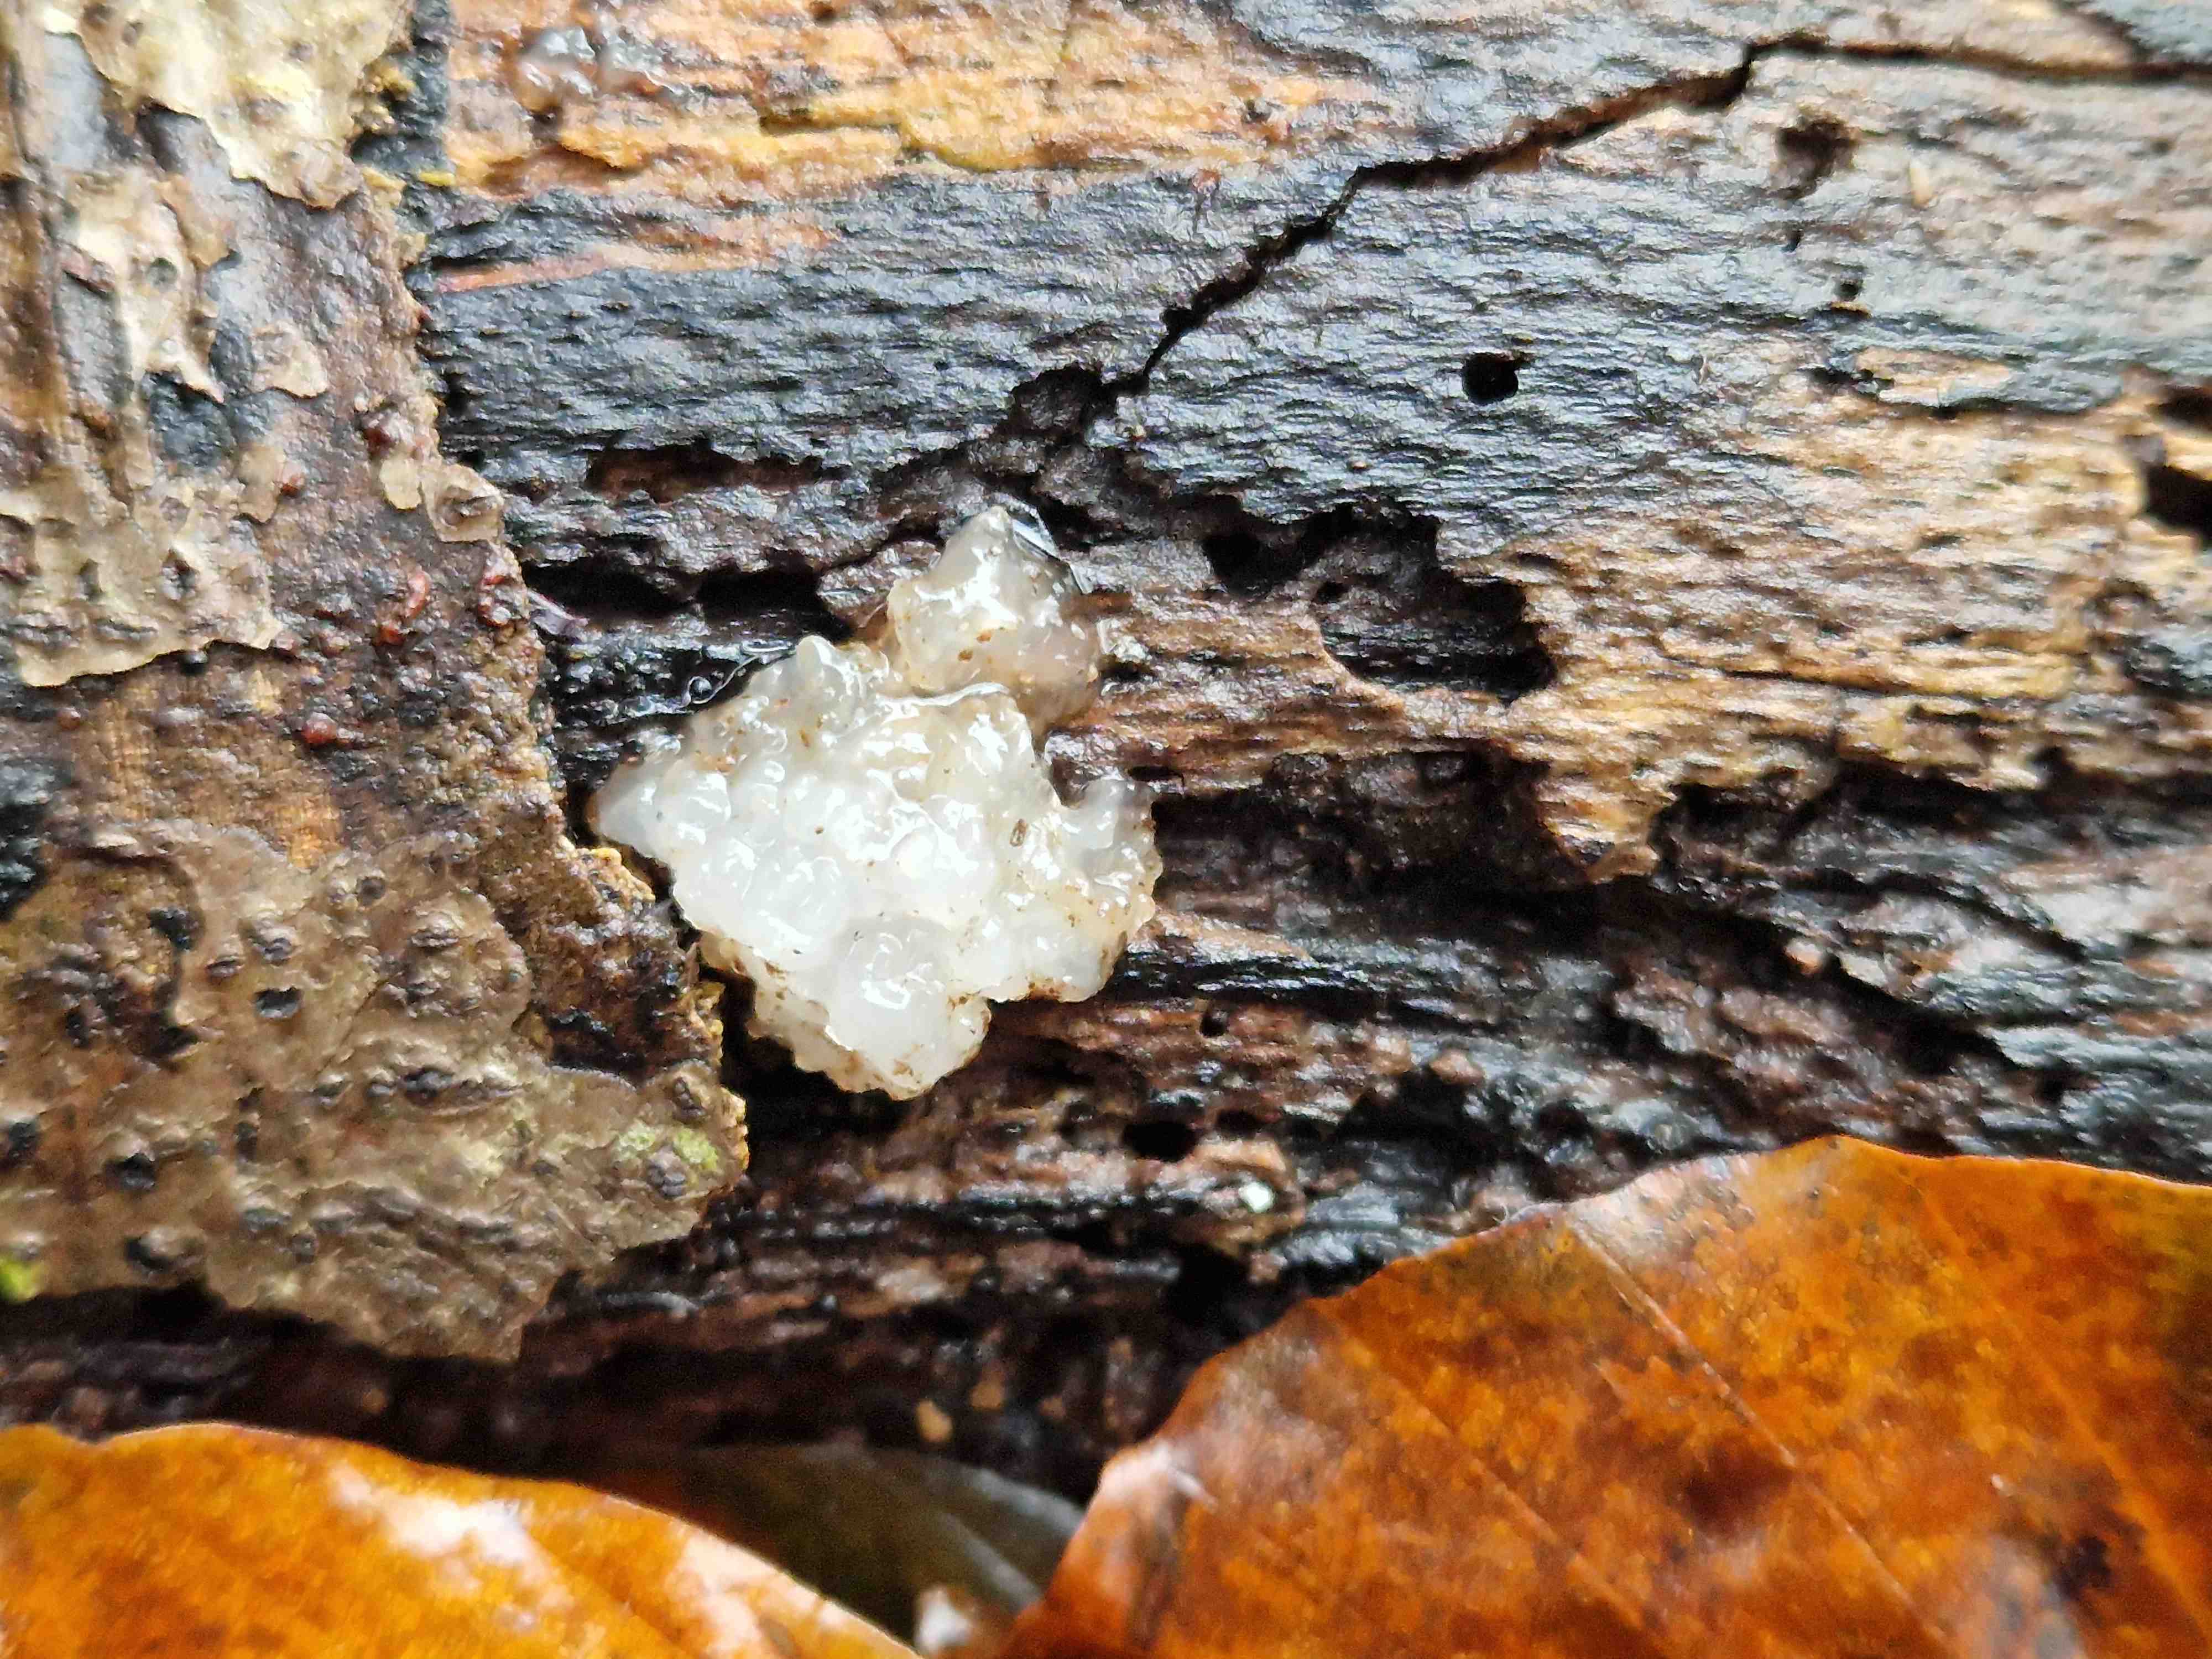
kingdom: Fungi
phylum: Basidiomycota
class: Agaricomycetes
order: Auriculariales
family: Auriculariaceae
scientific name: Auriculariaceae
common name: judasørefamilien
